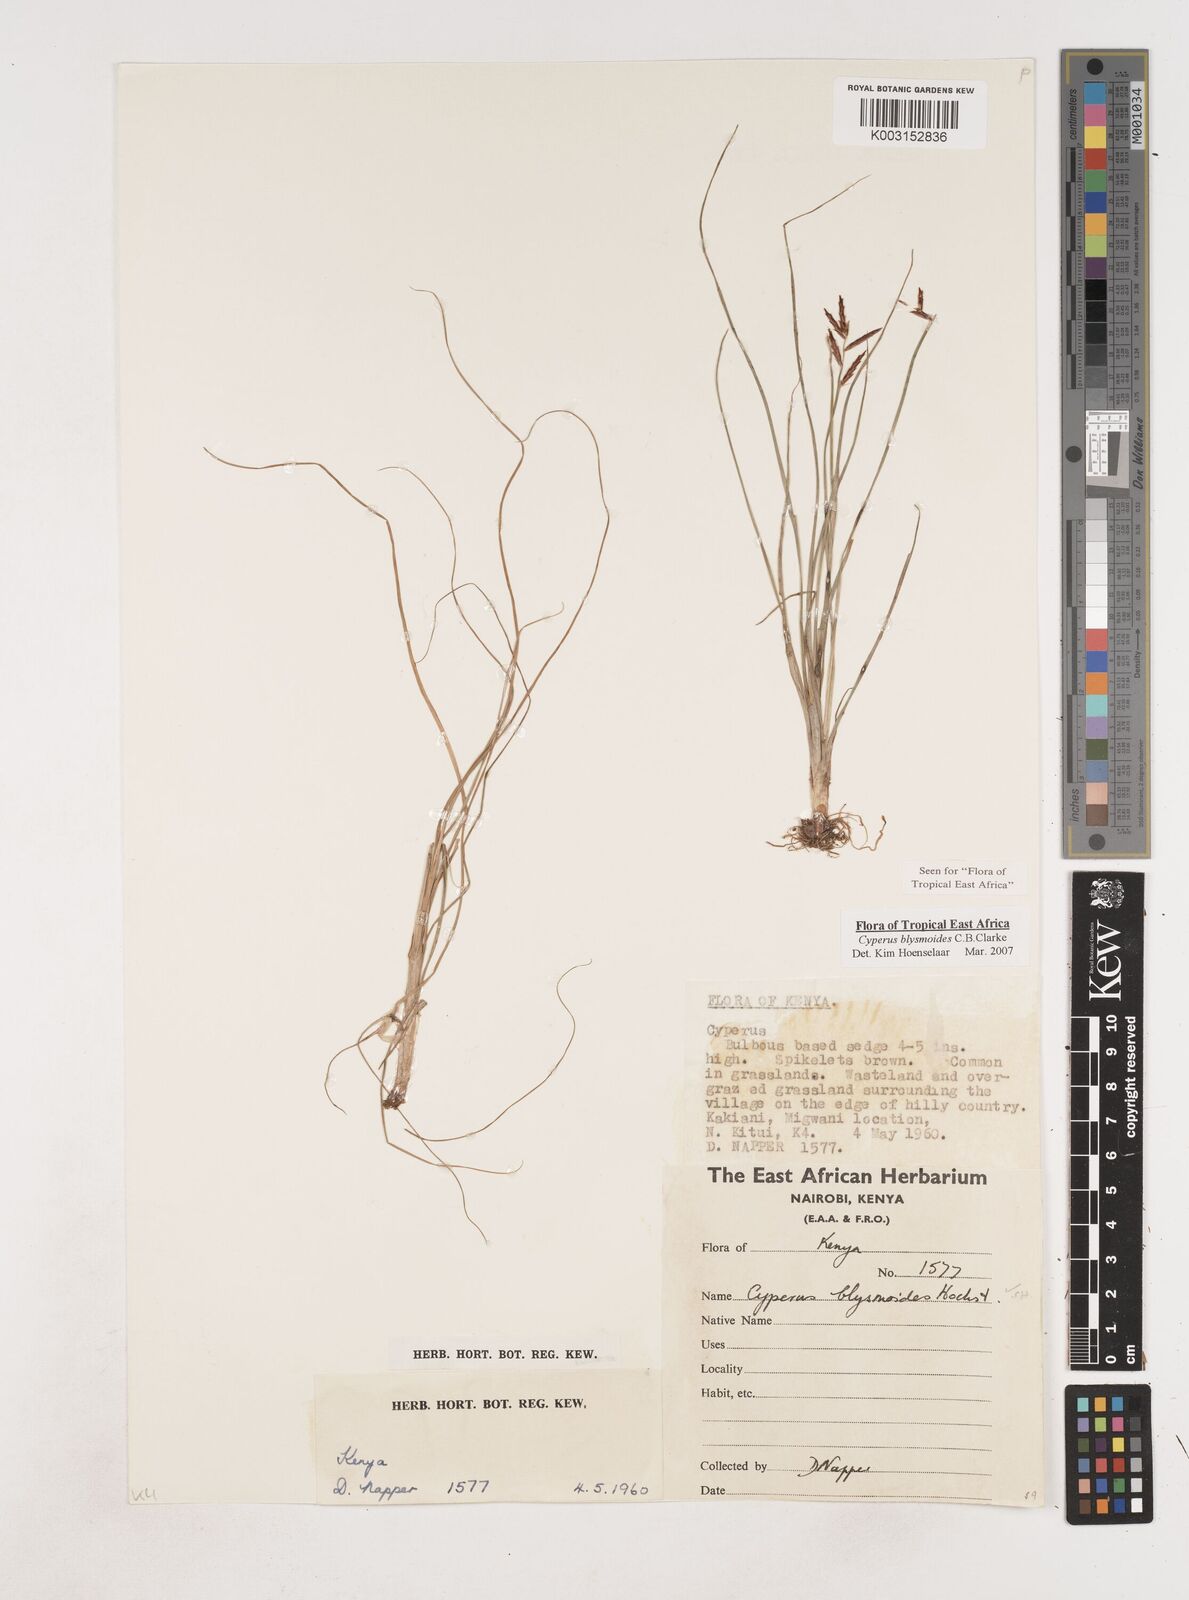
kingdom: Plantae
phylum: Tracheophyta
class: Liliopsida
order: Poales
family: Cyperaceae
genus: Cyperus
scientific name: Cyperus blysmoides
